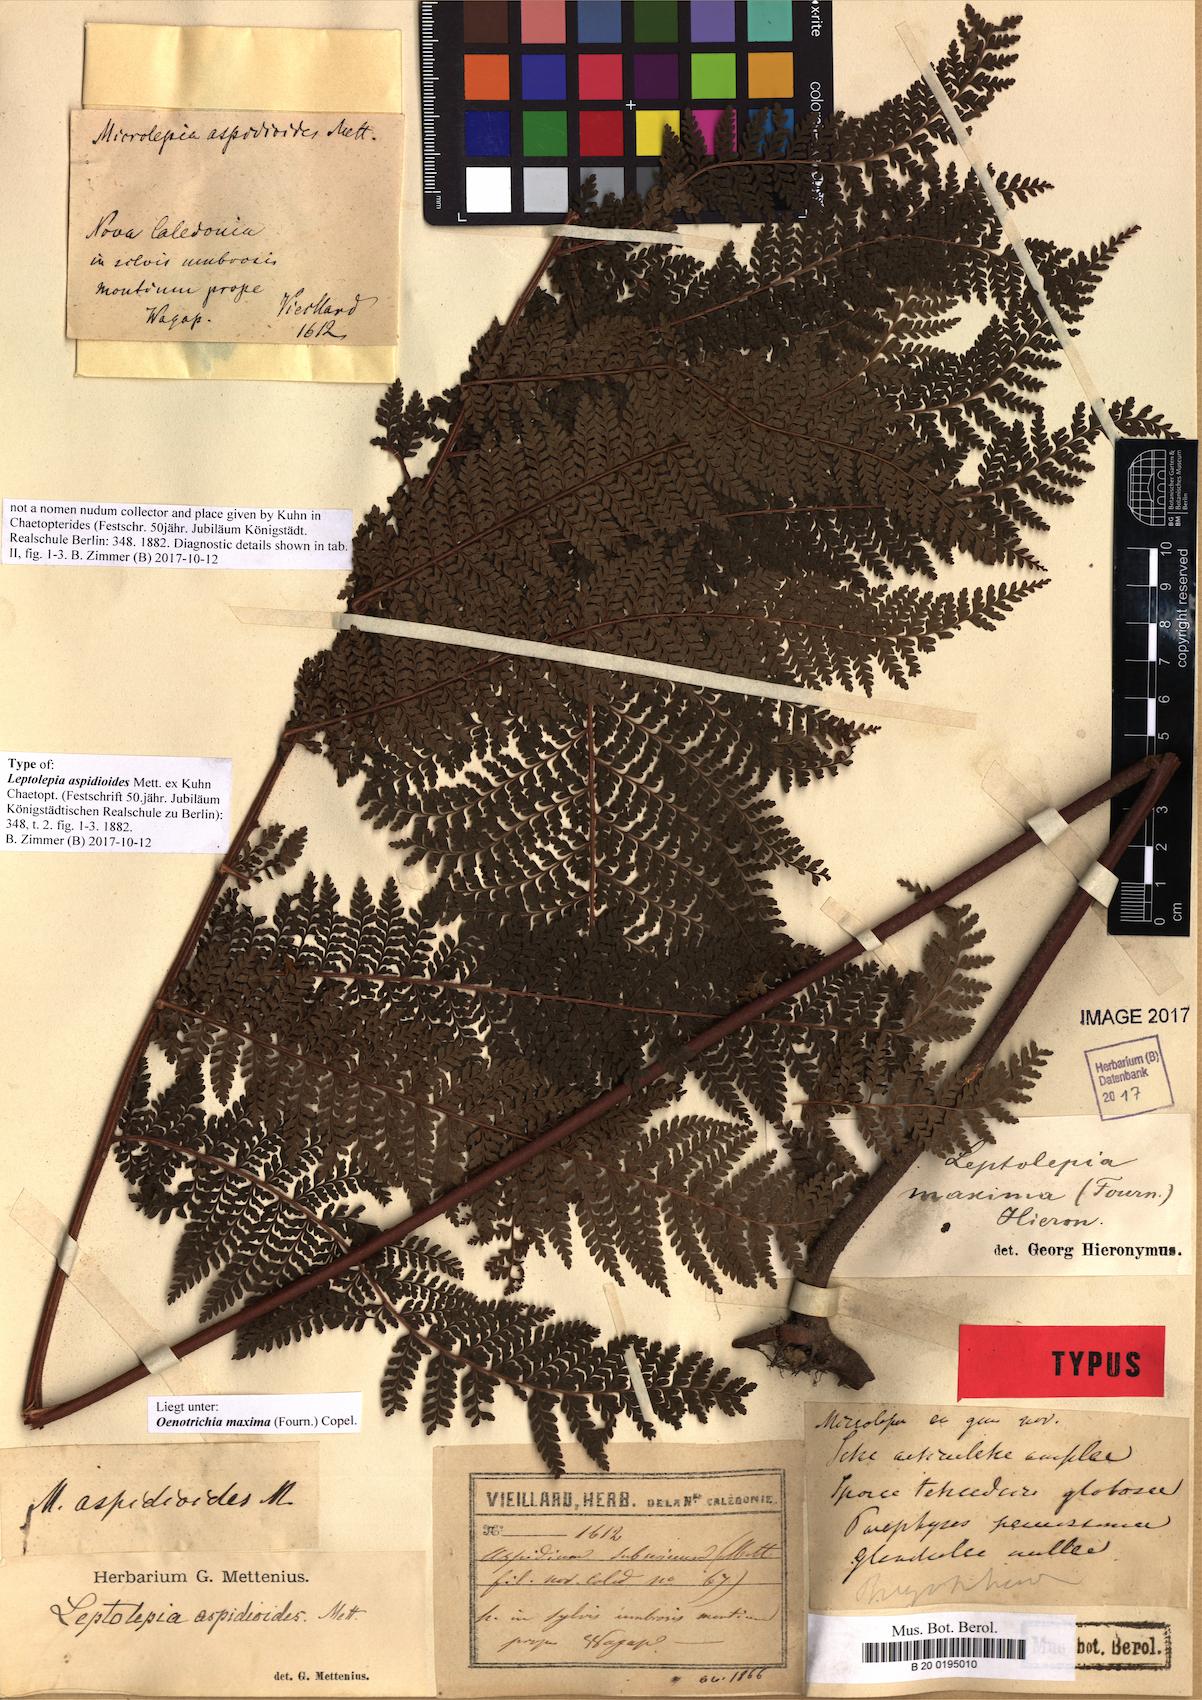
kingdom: Plantae
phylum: Tracheophyta
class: Polypodiopsida
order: Polypodiales
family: Dennstaedtiaceae
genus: Dennstaedtia
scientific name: Dennstaedtia maxima
